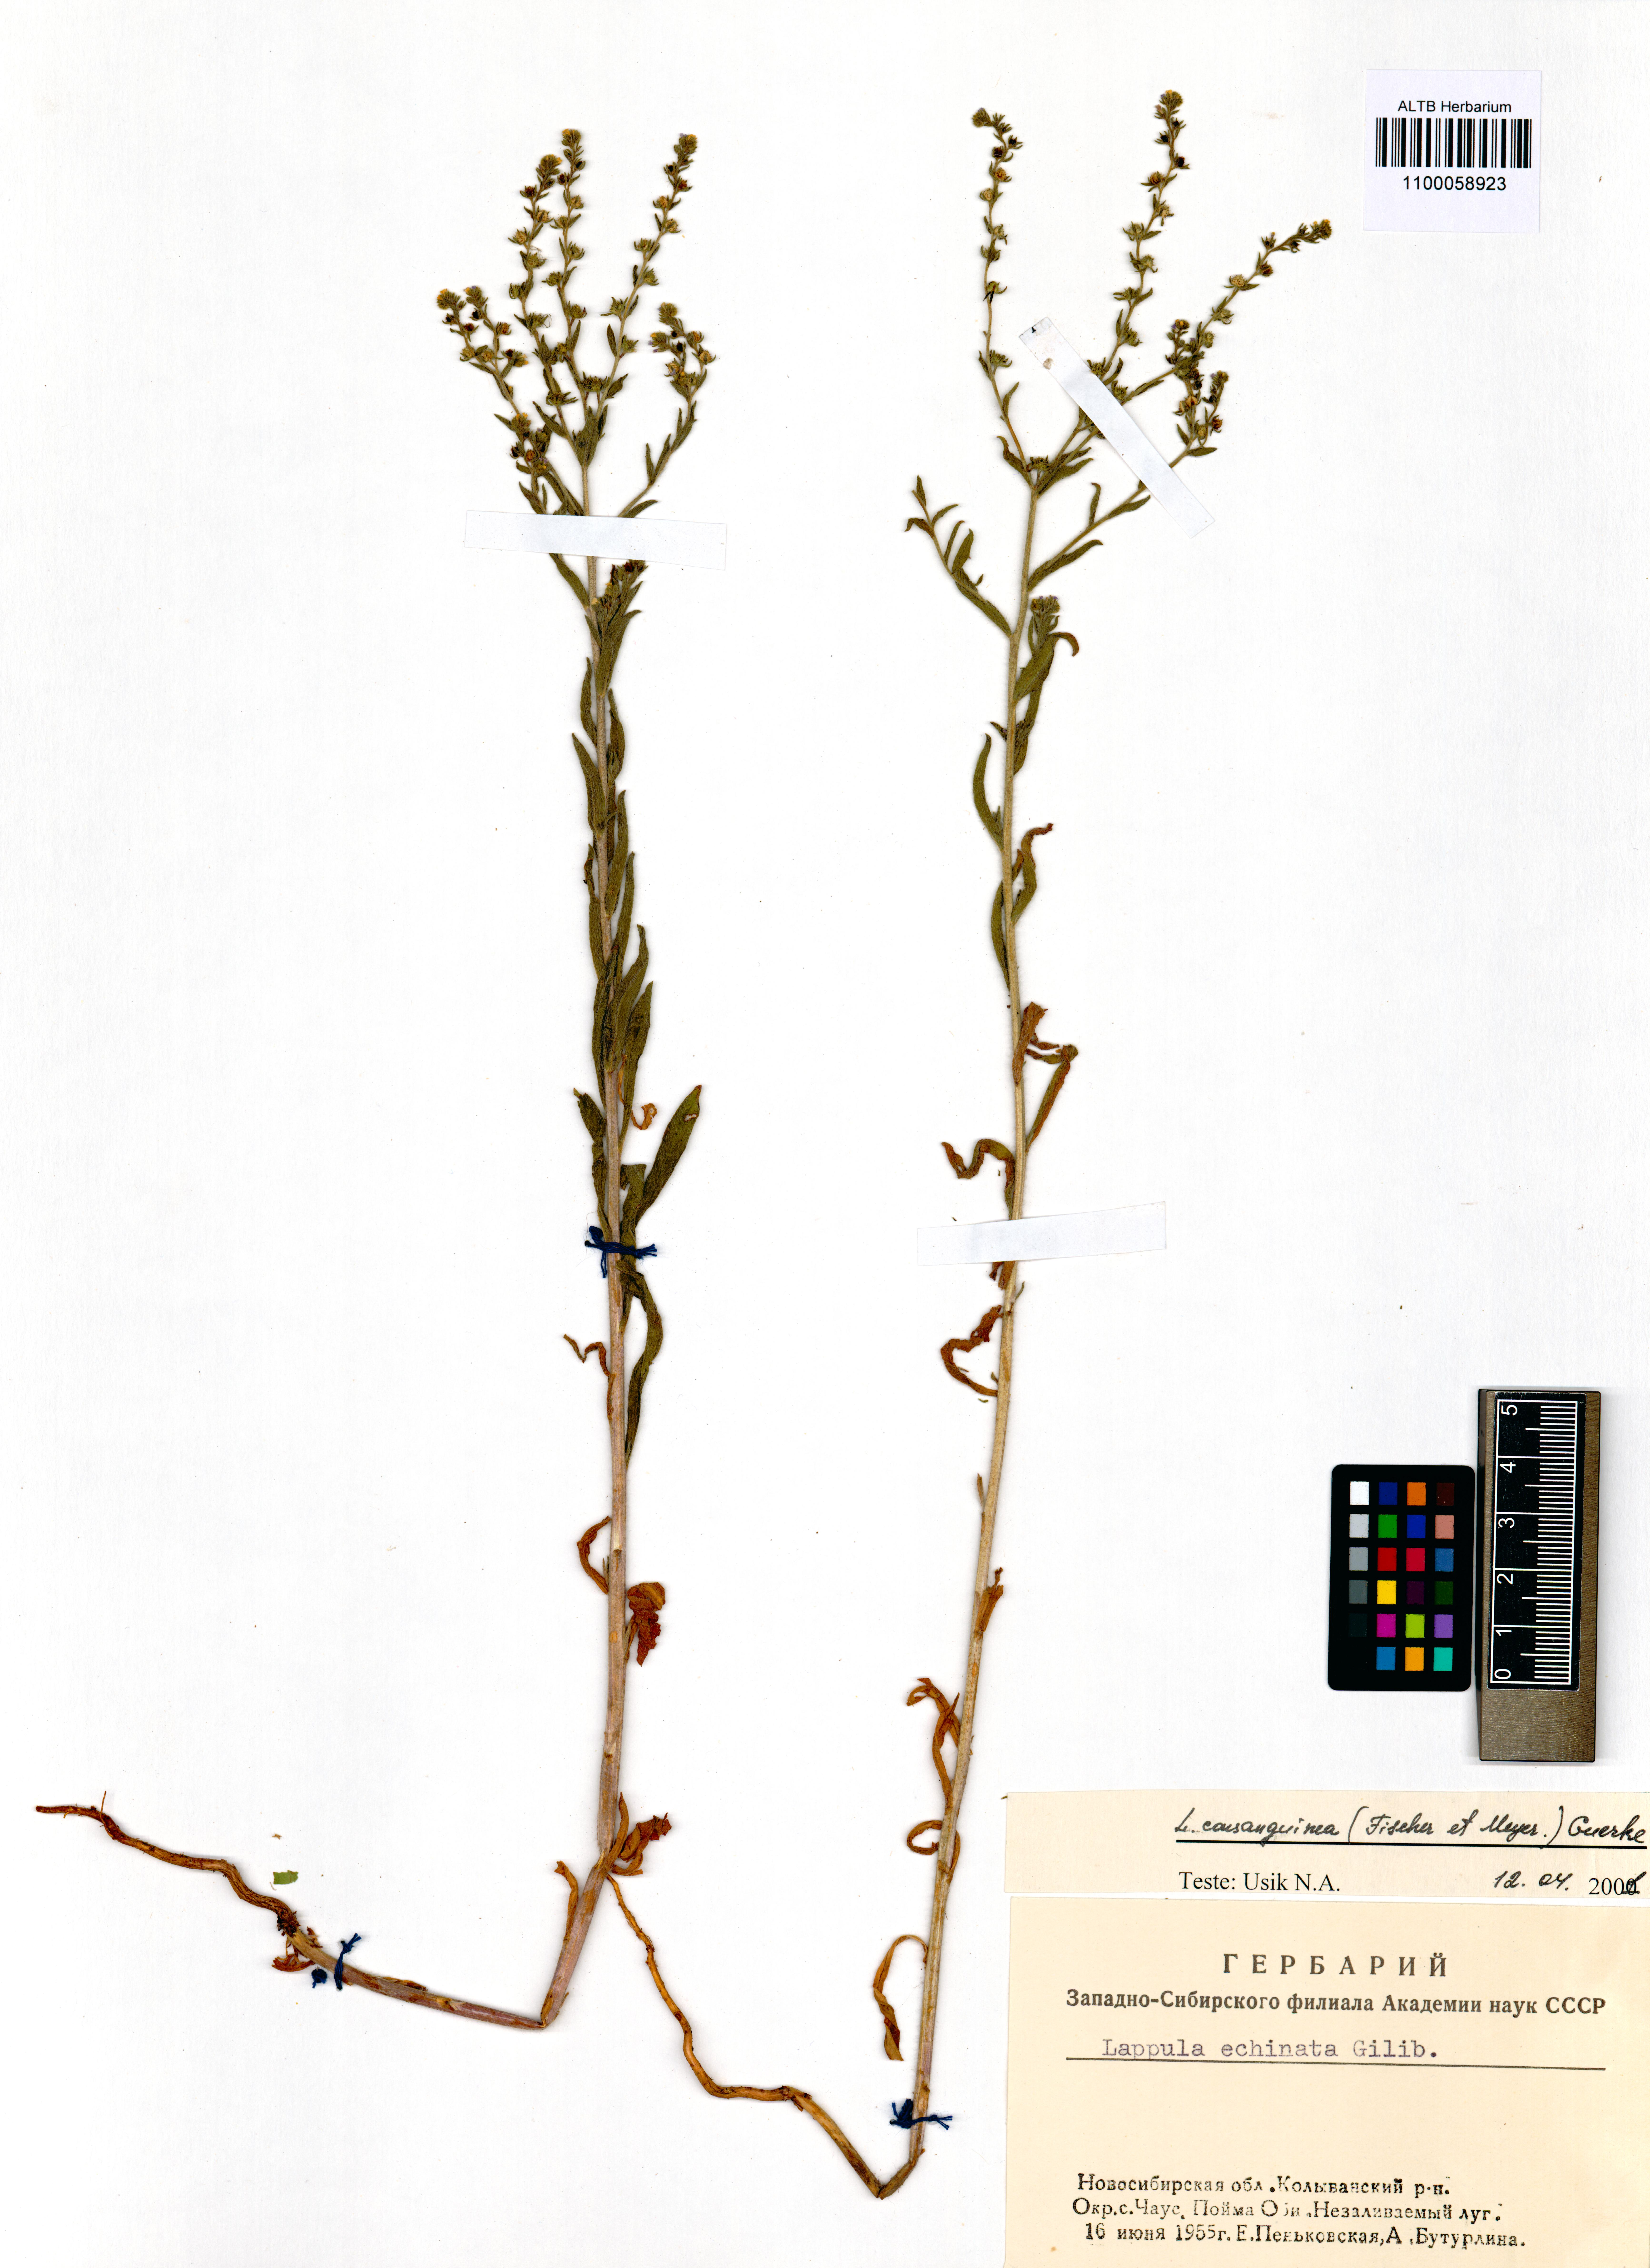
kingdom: Plantae
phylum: Tracheophyta
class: Magnoliopsida
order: Boraginales
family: Boraginaceae
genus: Lappula
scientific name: Lappula squarrosa
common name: European stickseed
